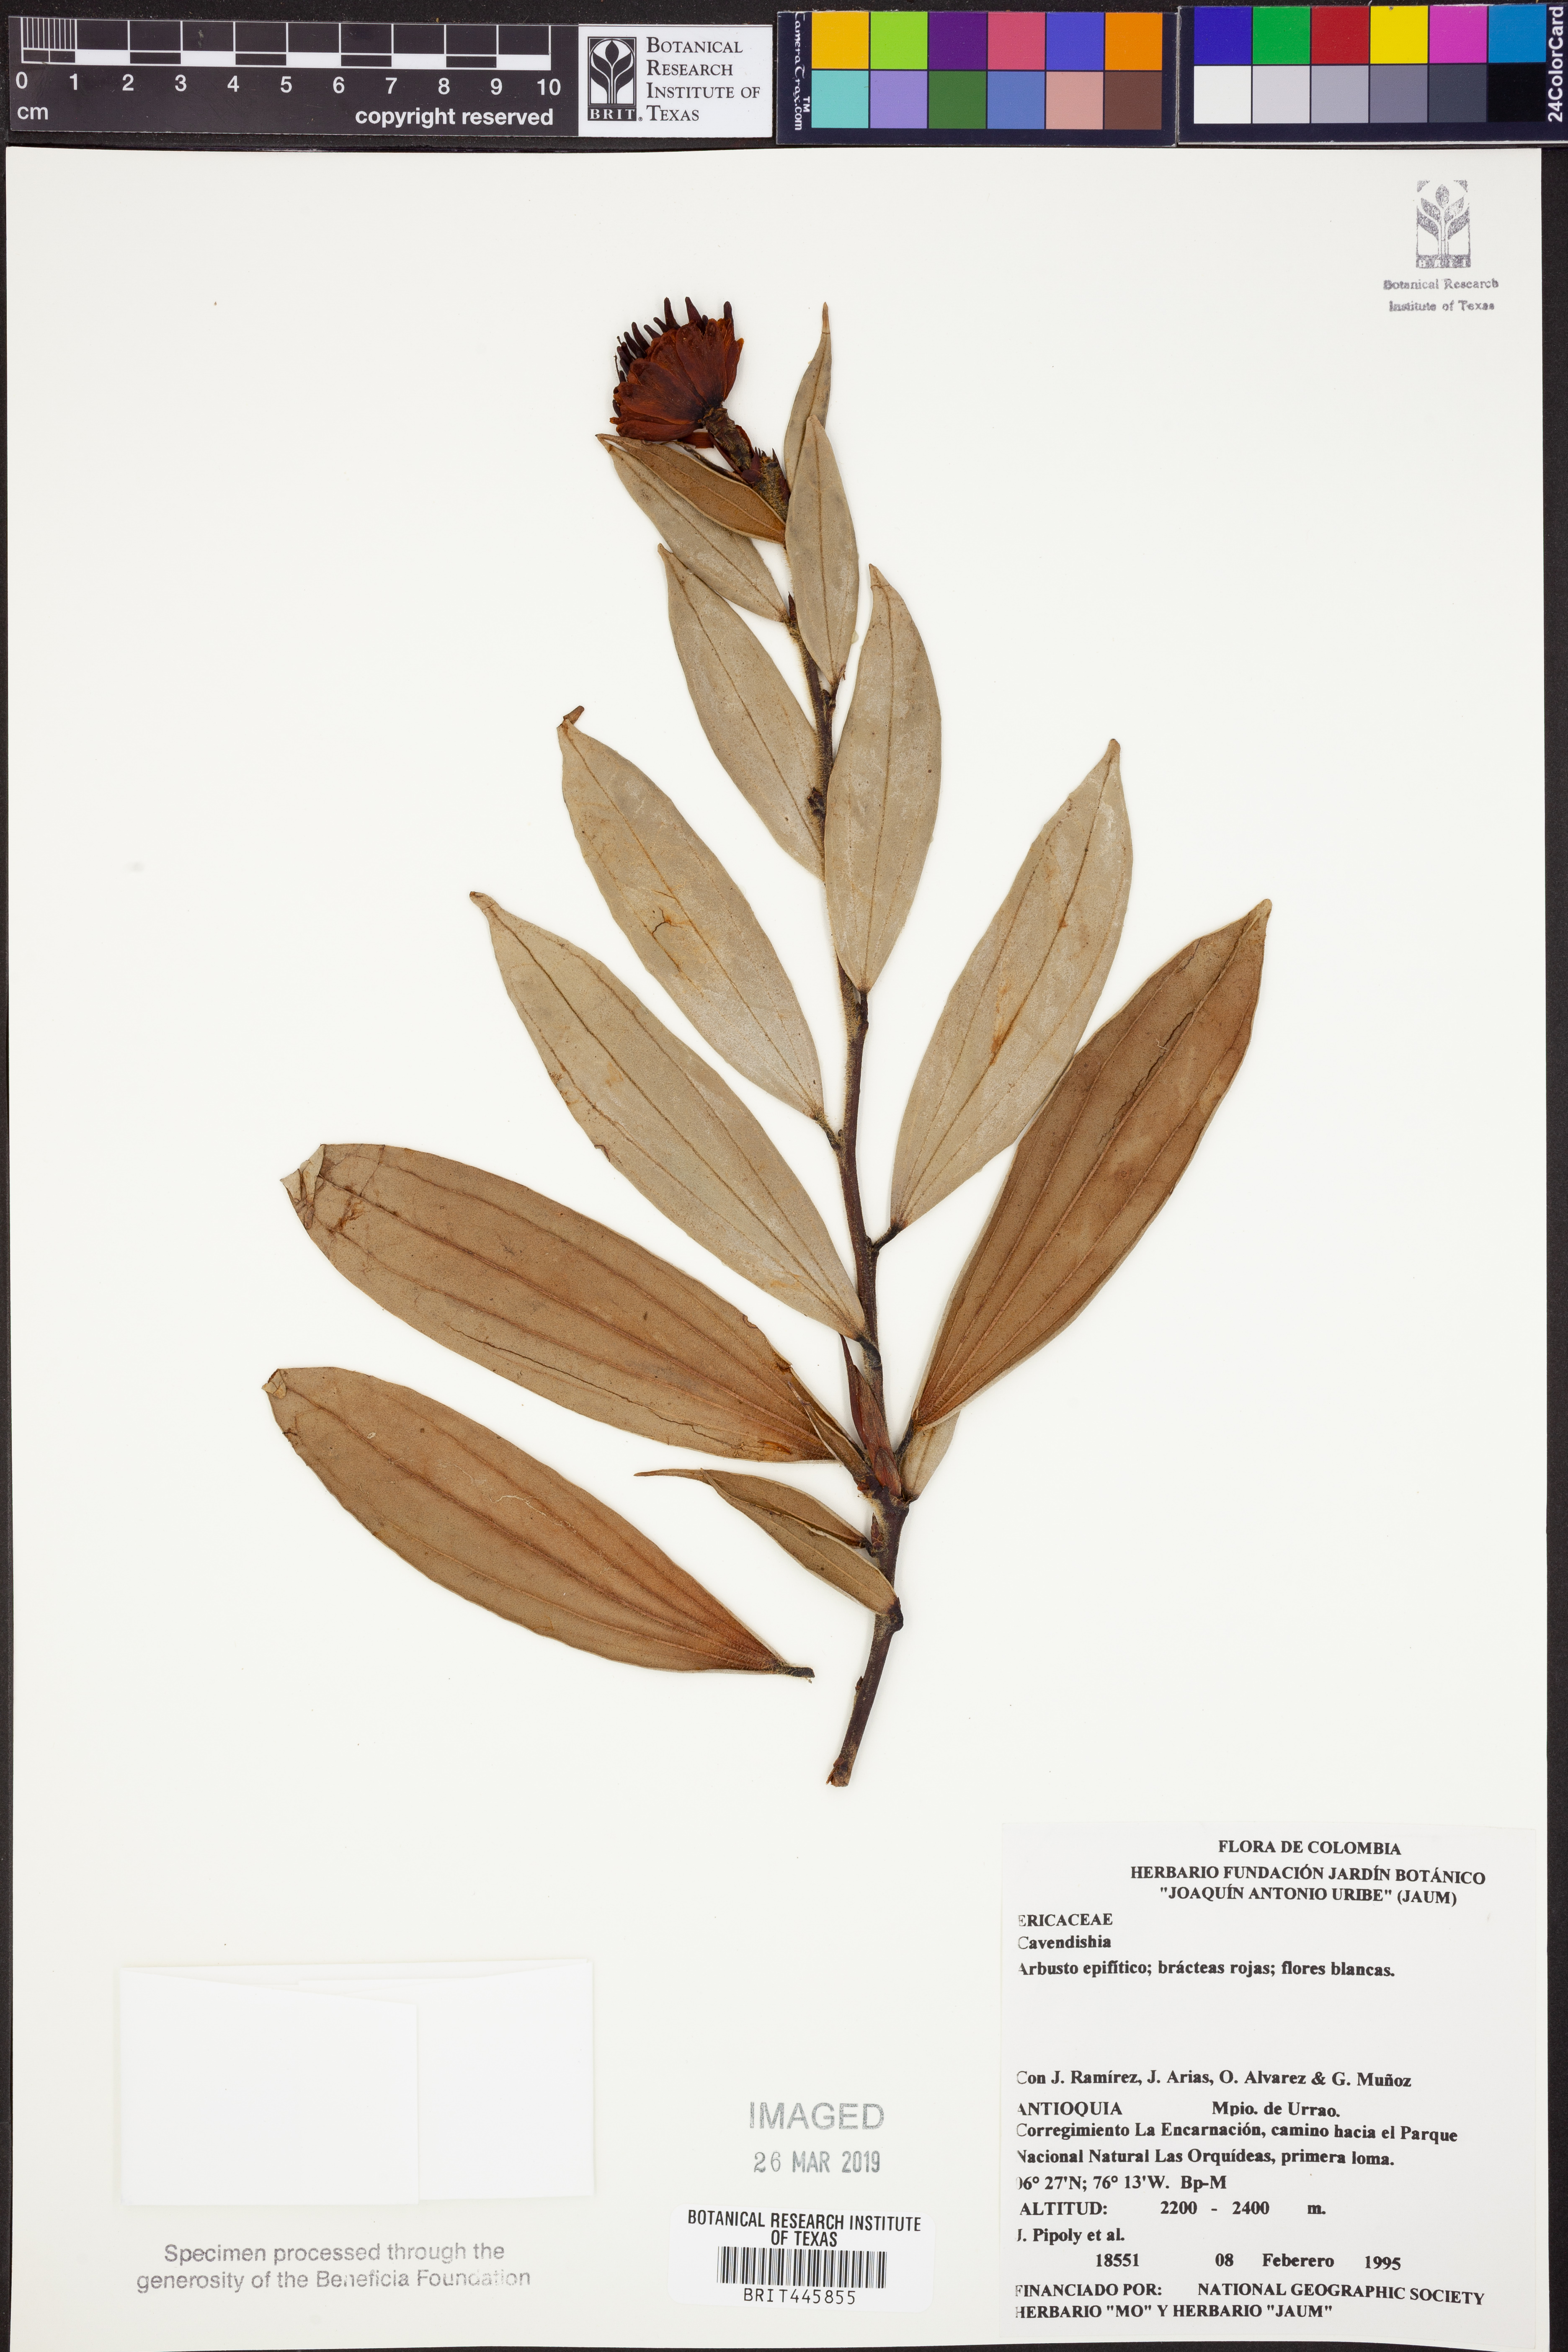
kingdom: Plantae
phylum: Tracheophyta
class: Magnoliopsida
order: Ericales
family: Ericaceae
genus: Cavendishia
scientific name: Cavendishia
